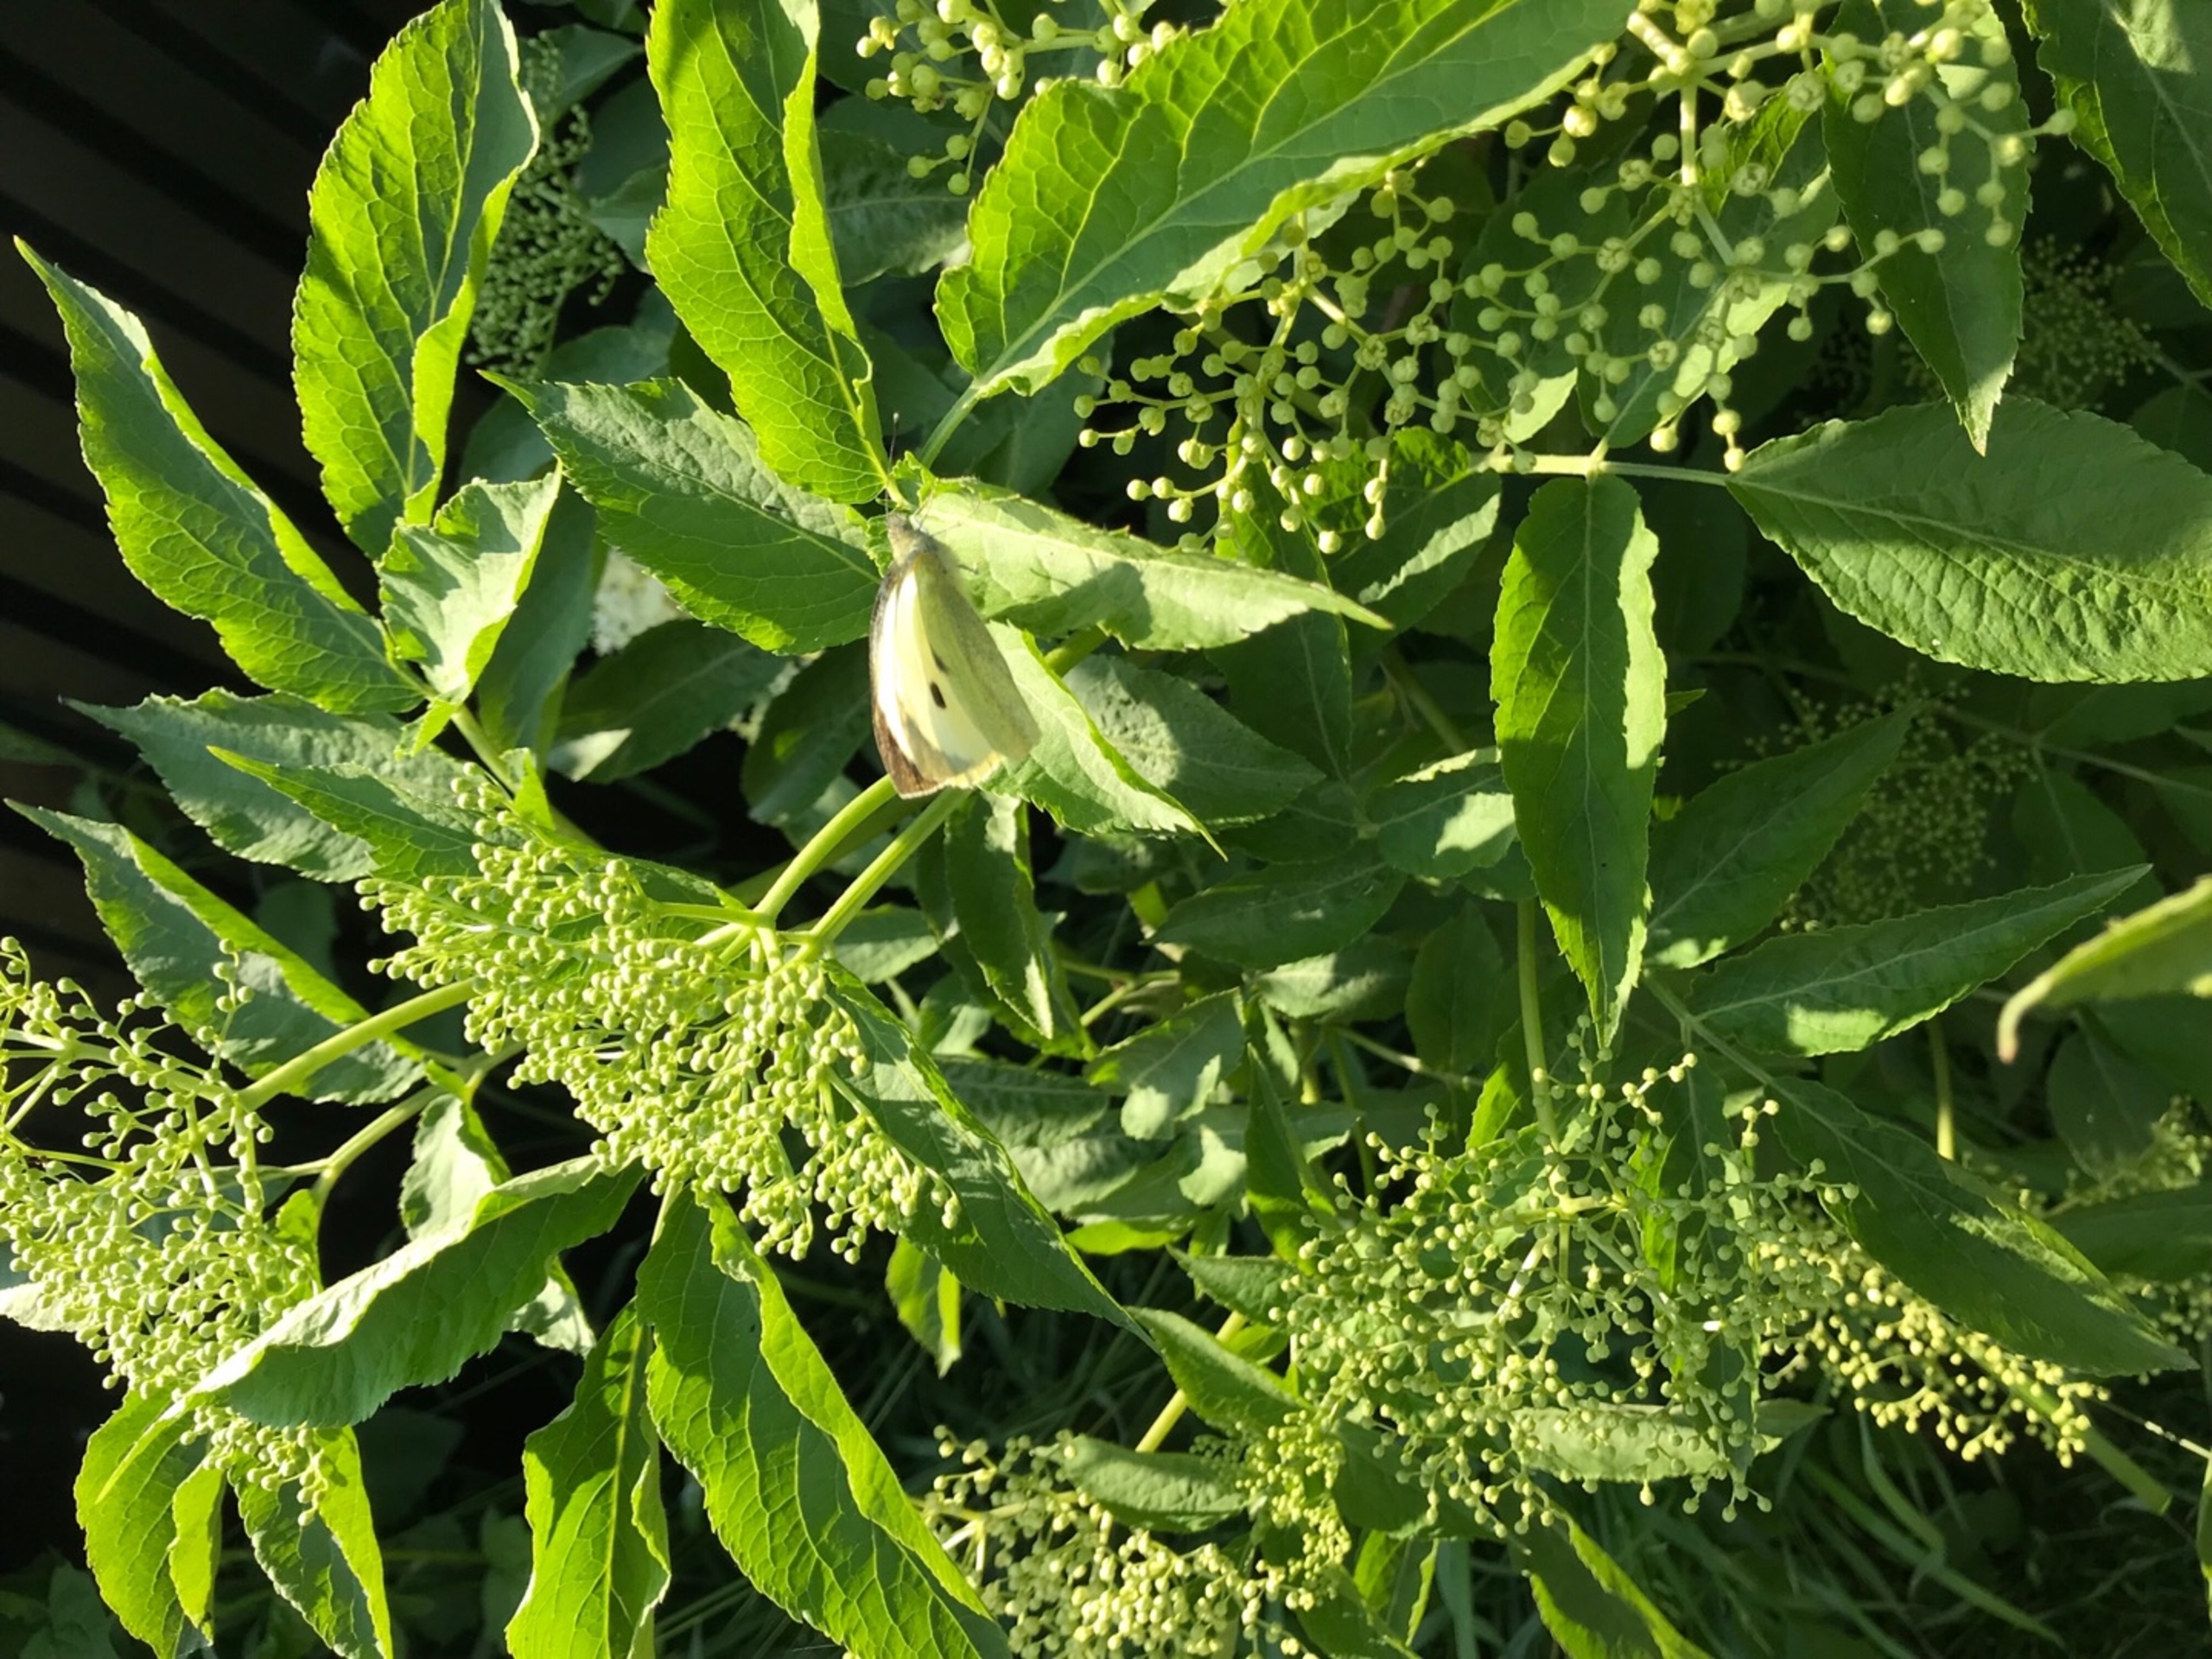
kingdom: Animalia
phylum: Arthropoda
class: Insecta
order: Lepidoptera
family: Pieridae
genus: Pieris
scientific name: Pieris brassicae
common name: Stor kålsommerfugl
